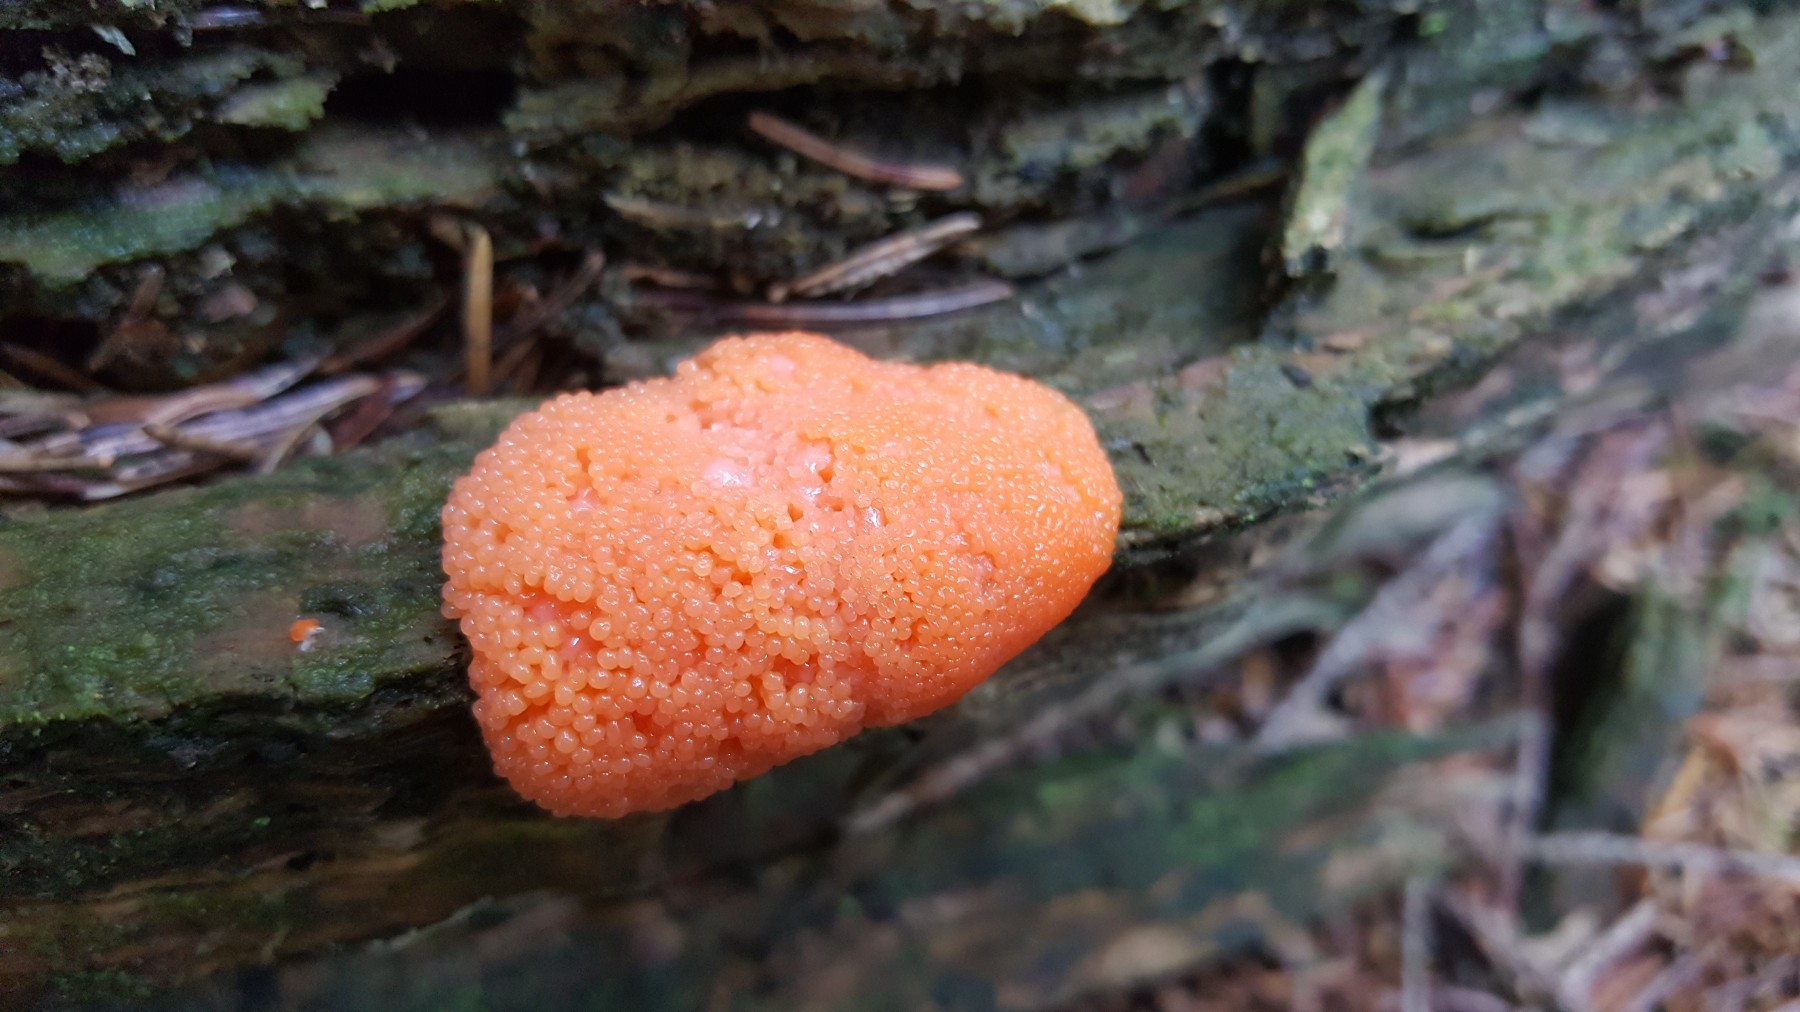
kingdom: Protozoa
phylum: Mycetozoa
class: Myxomycetes
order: Cribrariales
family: Tubiferaceae
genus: Tubifera
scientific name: Tubifera ferruginosa
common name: kanel-støvrør
